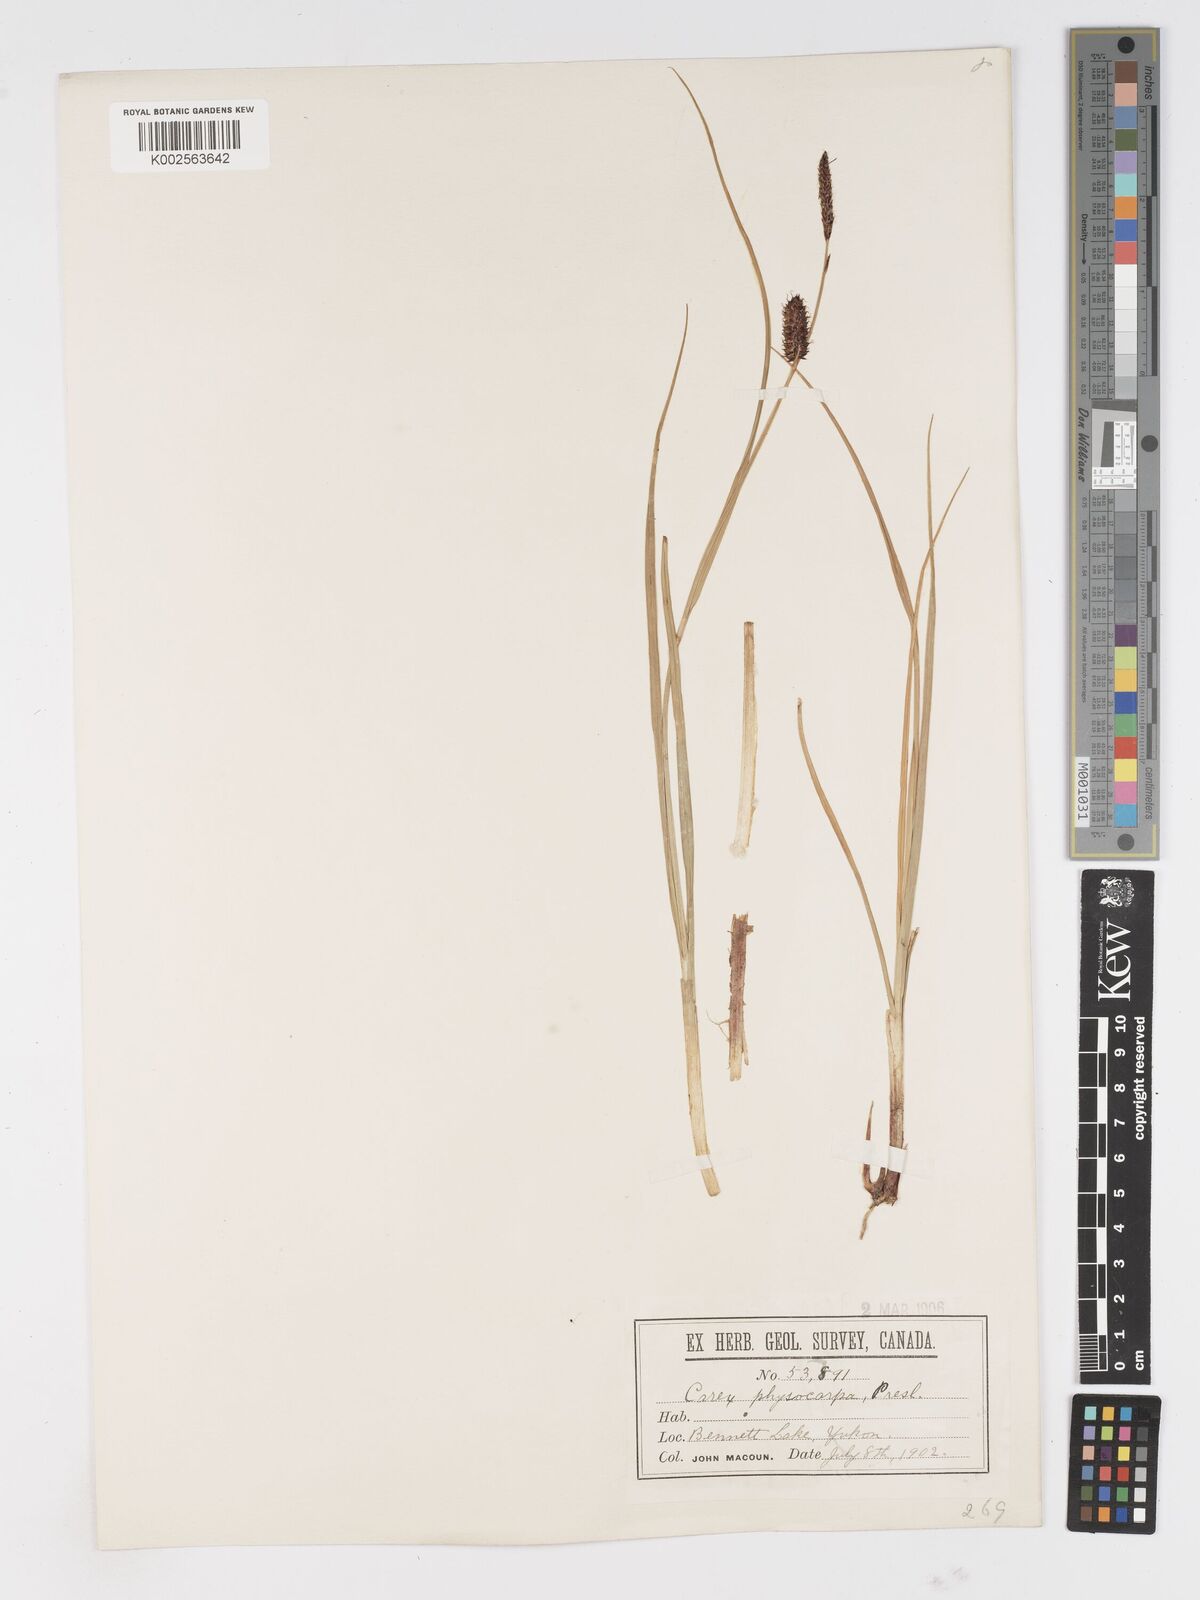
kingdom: Plantae
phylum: Tracheophyta
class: Liliopsida
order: Poales
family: Cyperaceae
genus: Carex
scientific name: Carex saxatilis
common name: Russet sedge
